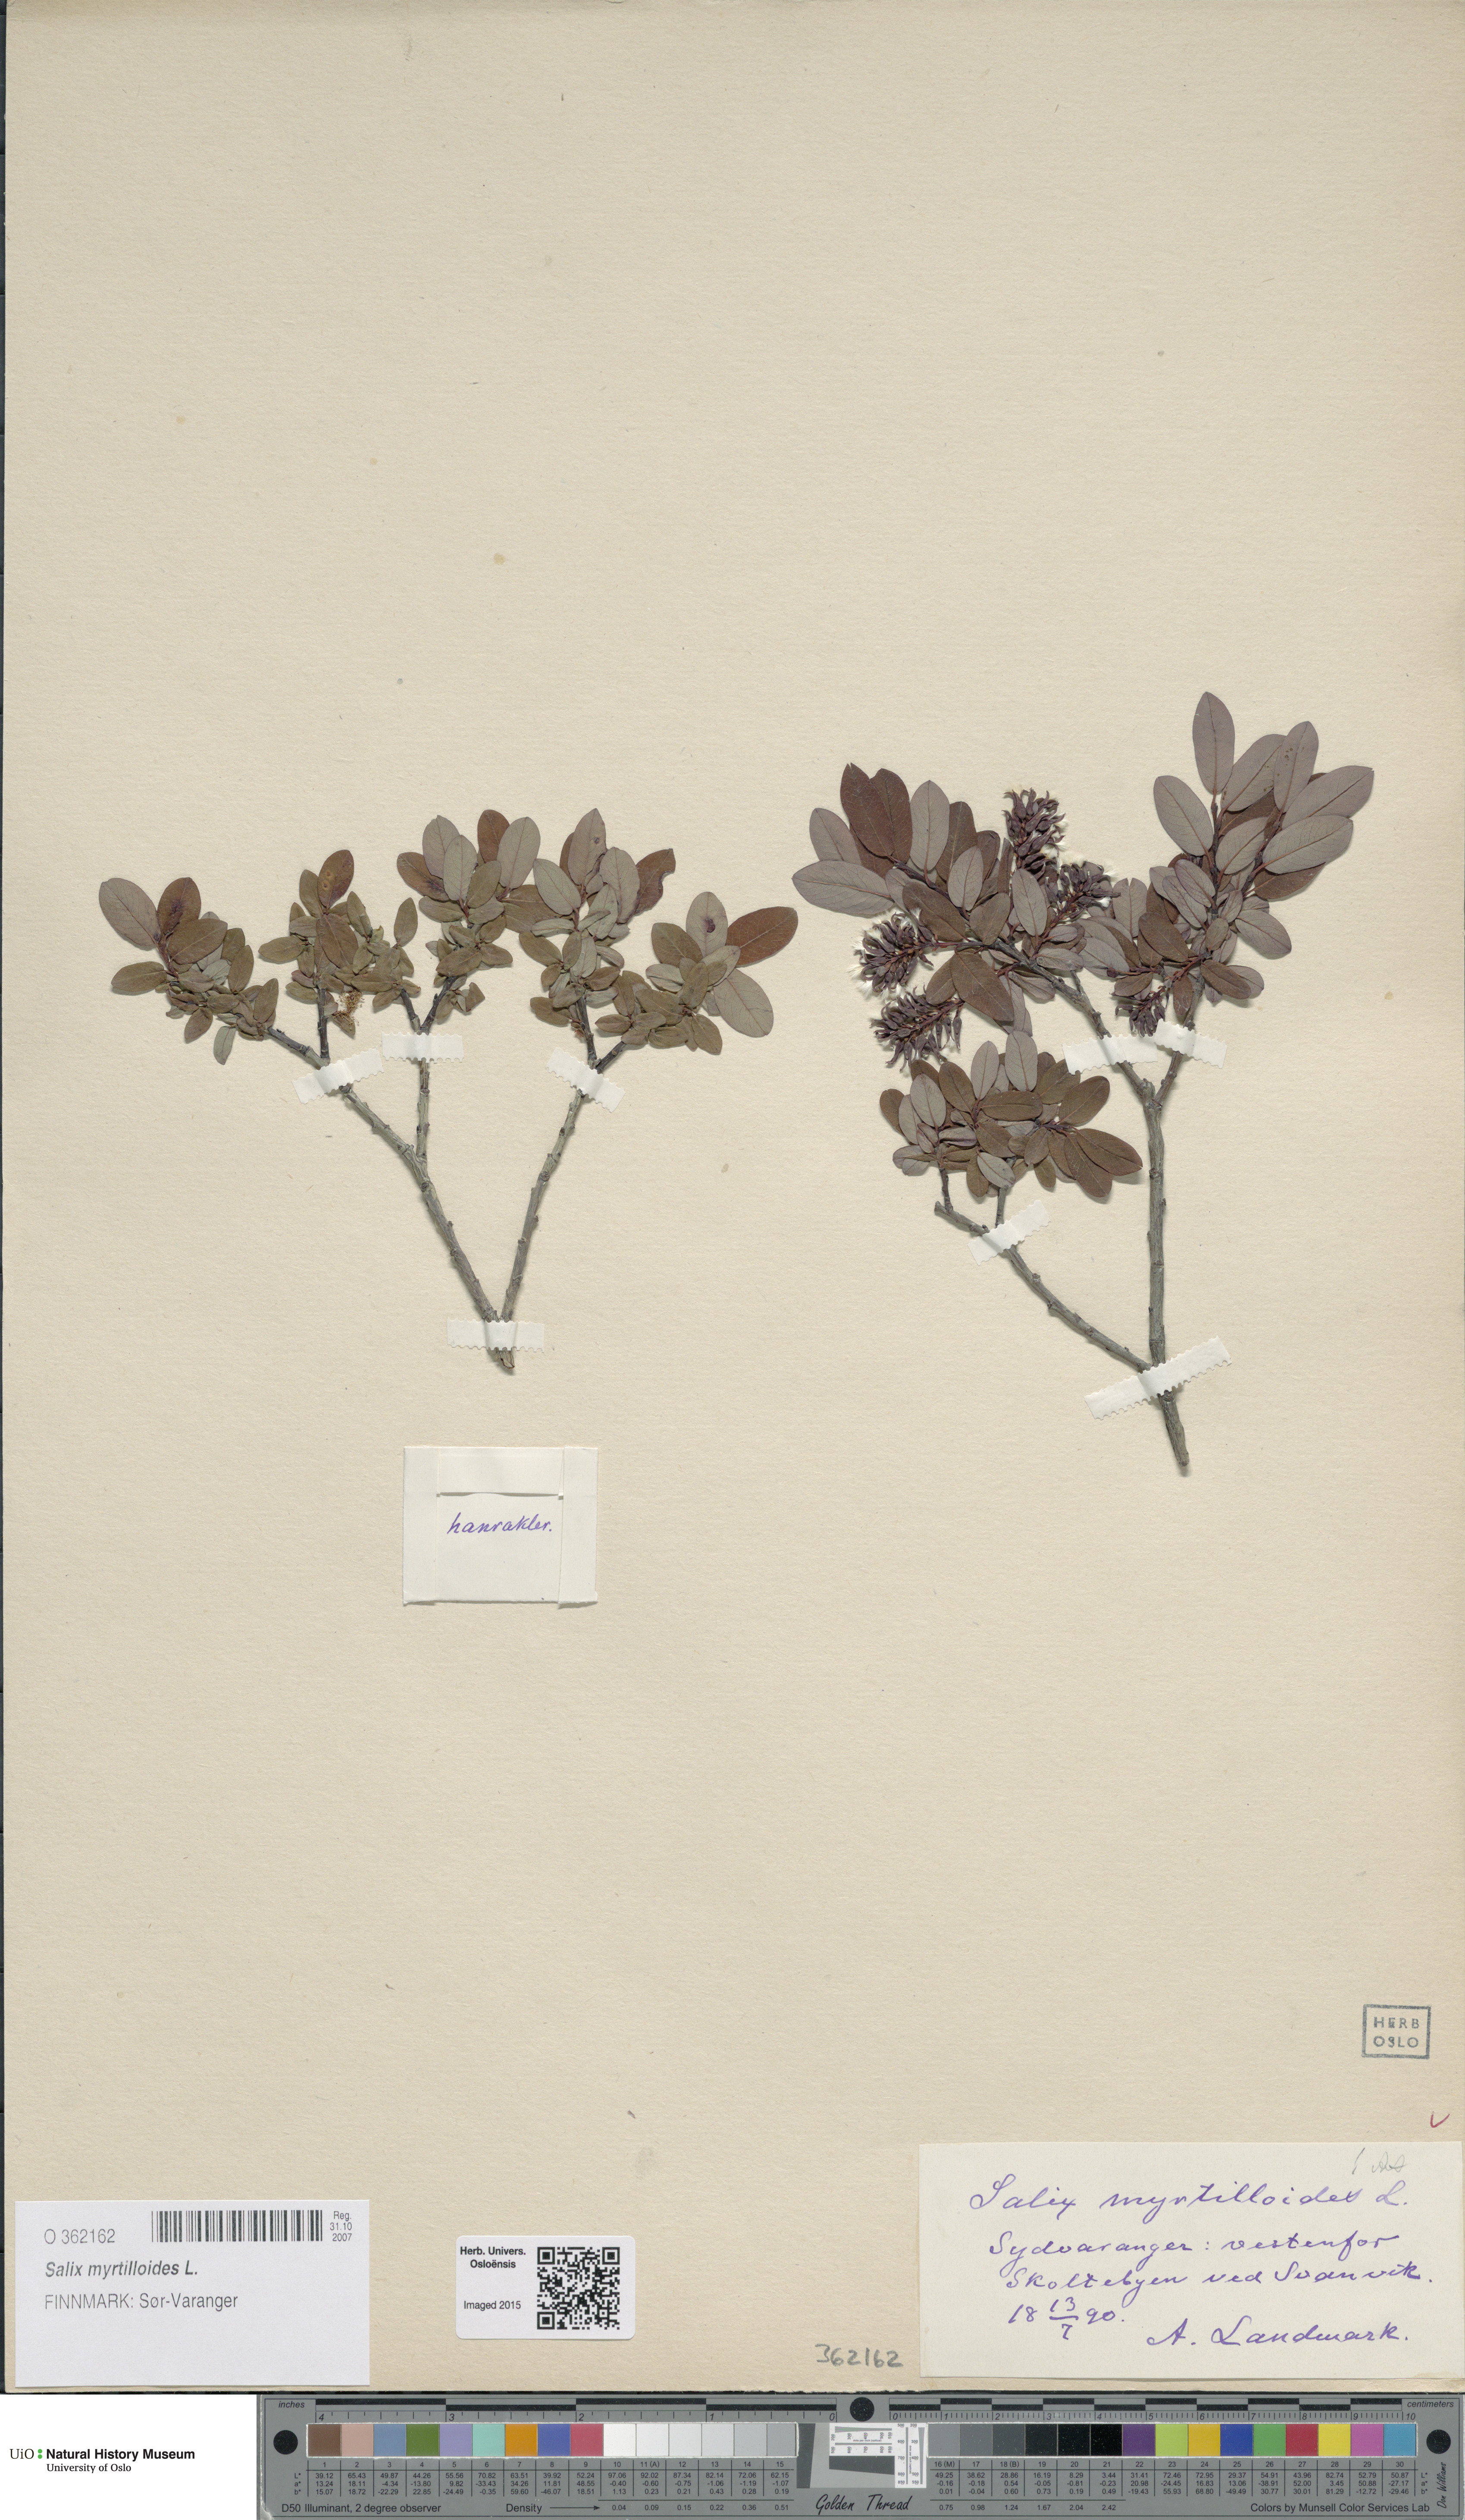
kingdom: Plantae
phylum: Tracheophyta
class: Magnoliopsida
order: Malpighiales
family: Salicaceae
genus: Salix
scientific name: Salix myrtilloides
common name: Myrtle-leaved willow
